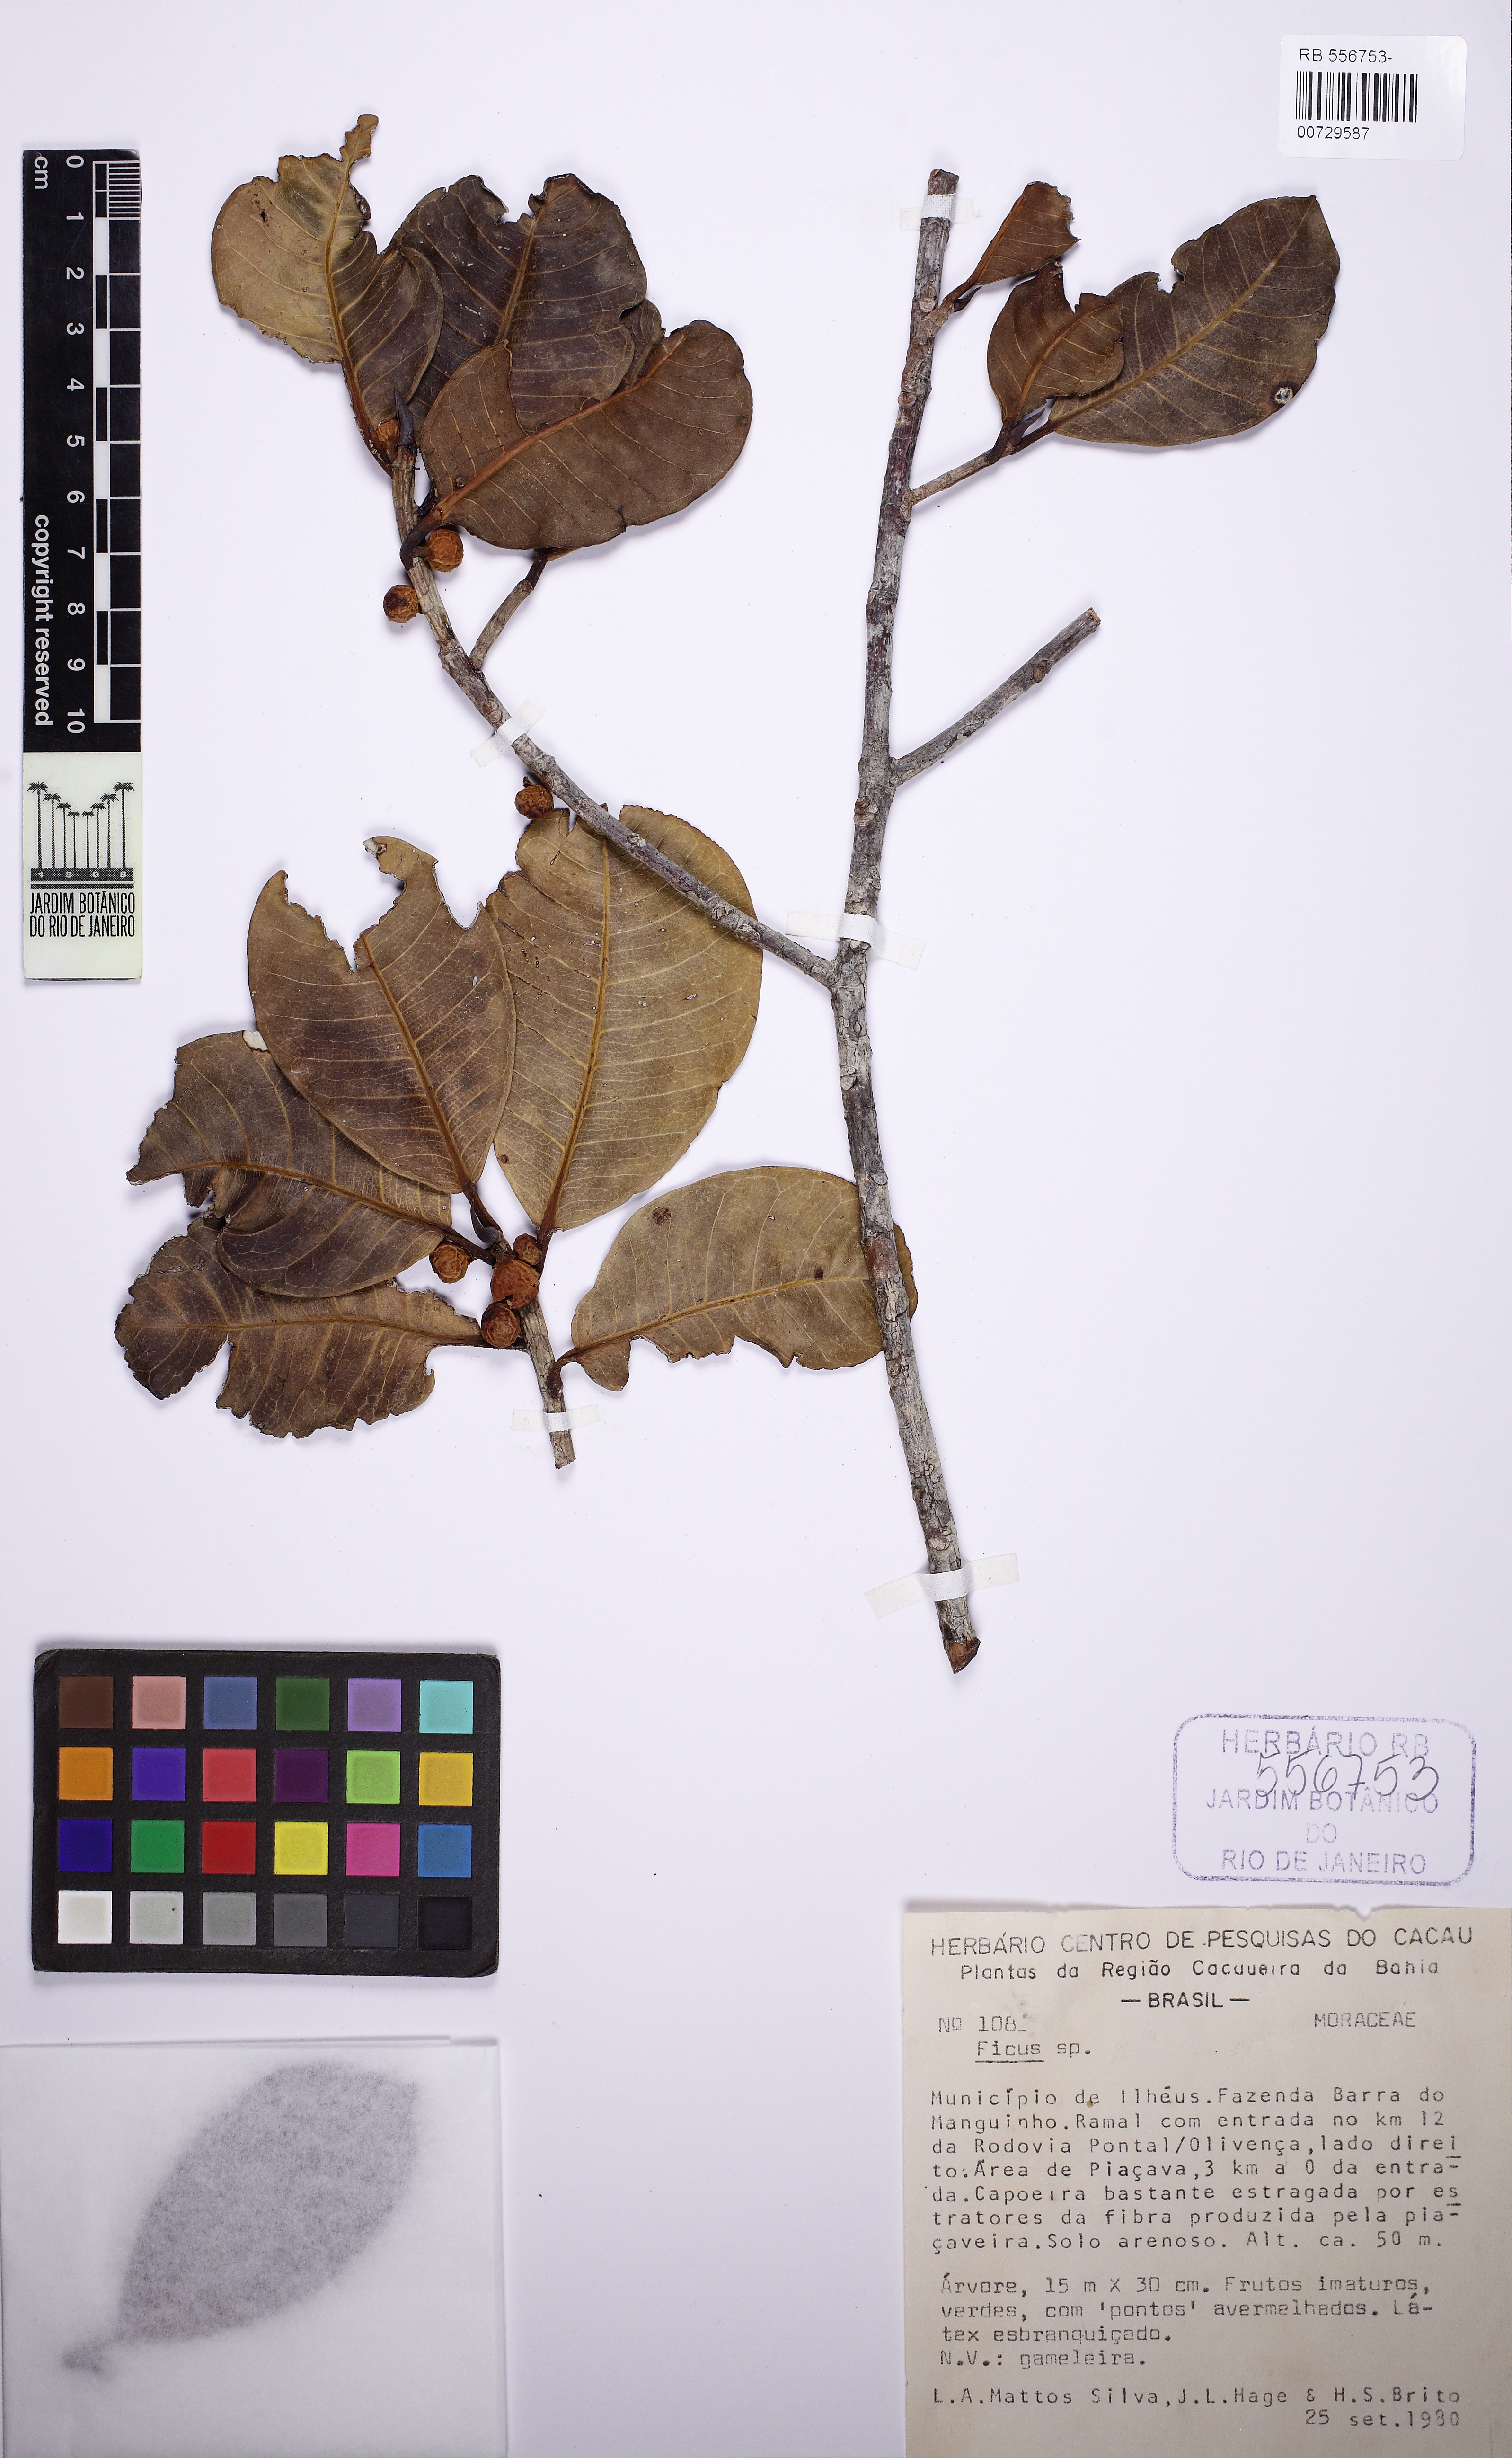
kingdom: Plantae
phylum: Tracheophyta
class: Magnoliopsida
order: Rosales
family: Moraceae
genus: Ficus
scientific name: Ficus bahiensis
